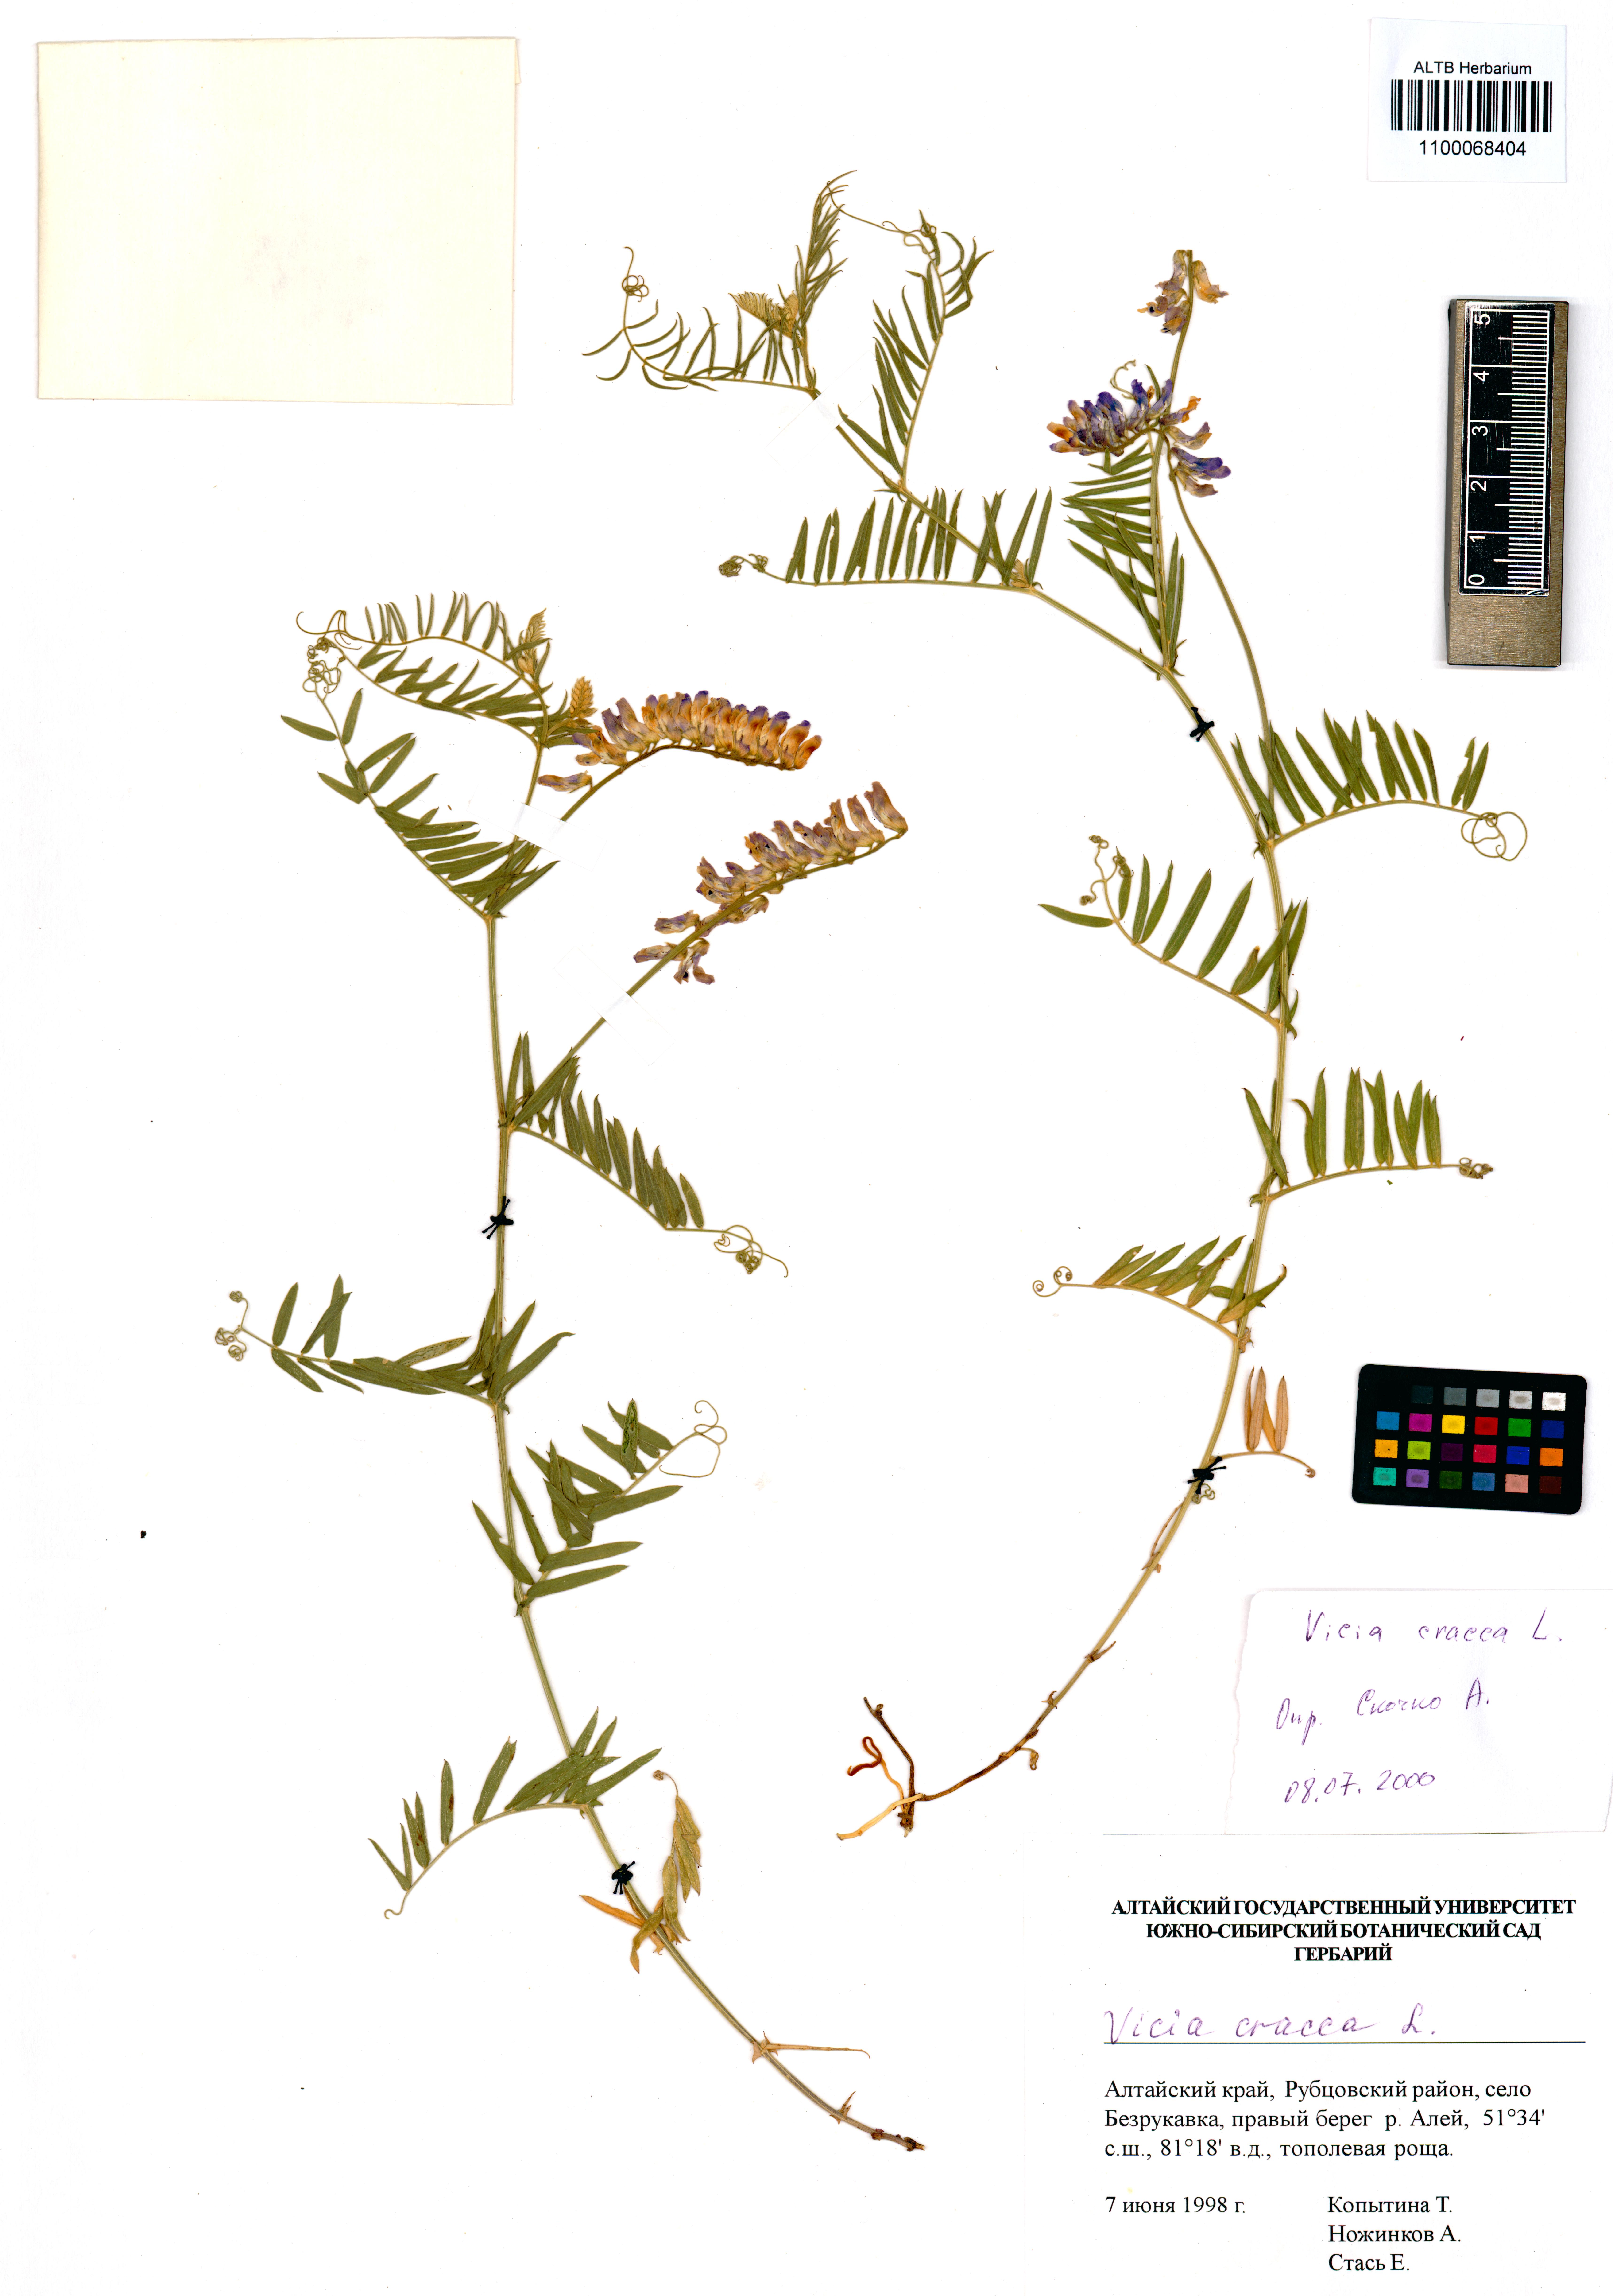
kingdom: Plantae
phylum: Tracheophyta
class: Magnoliopsida
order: Fabales
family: Fabaceae
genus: Vicia
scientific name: Vicia cracca
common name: Bird vetch
